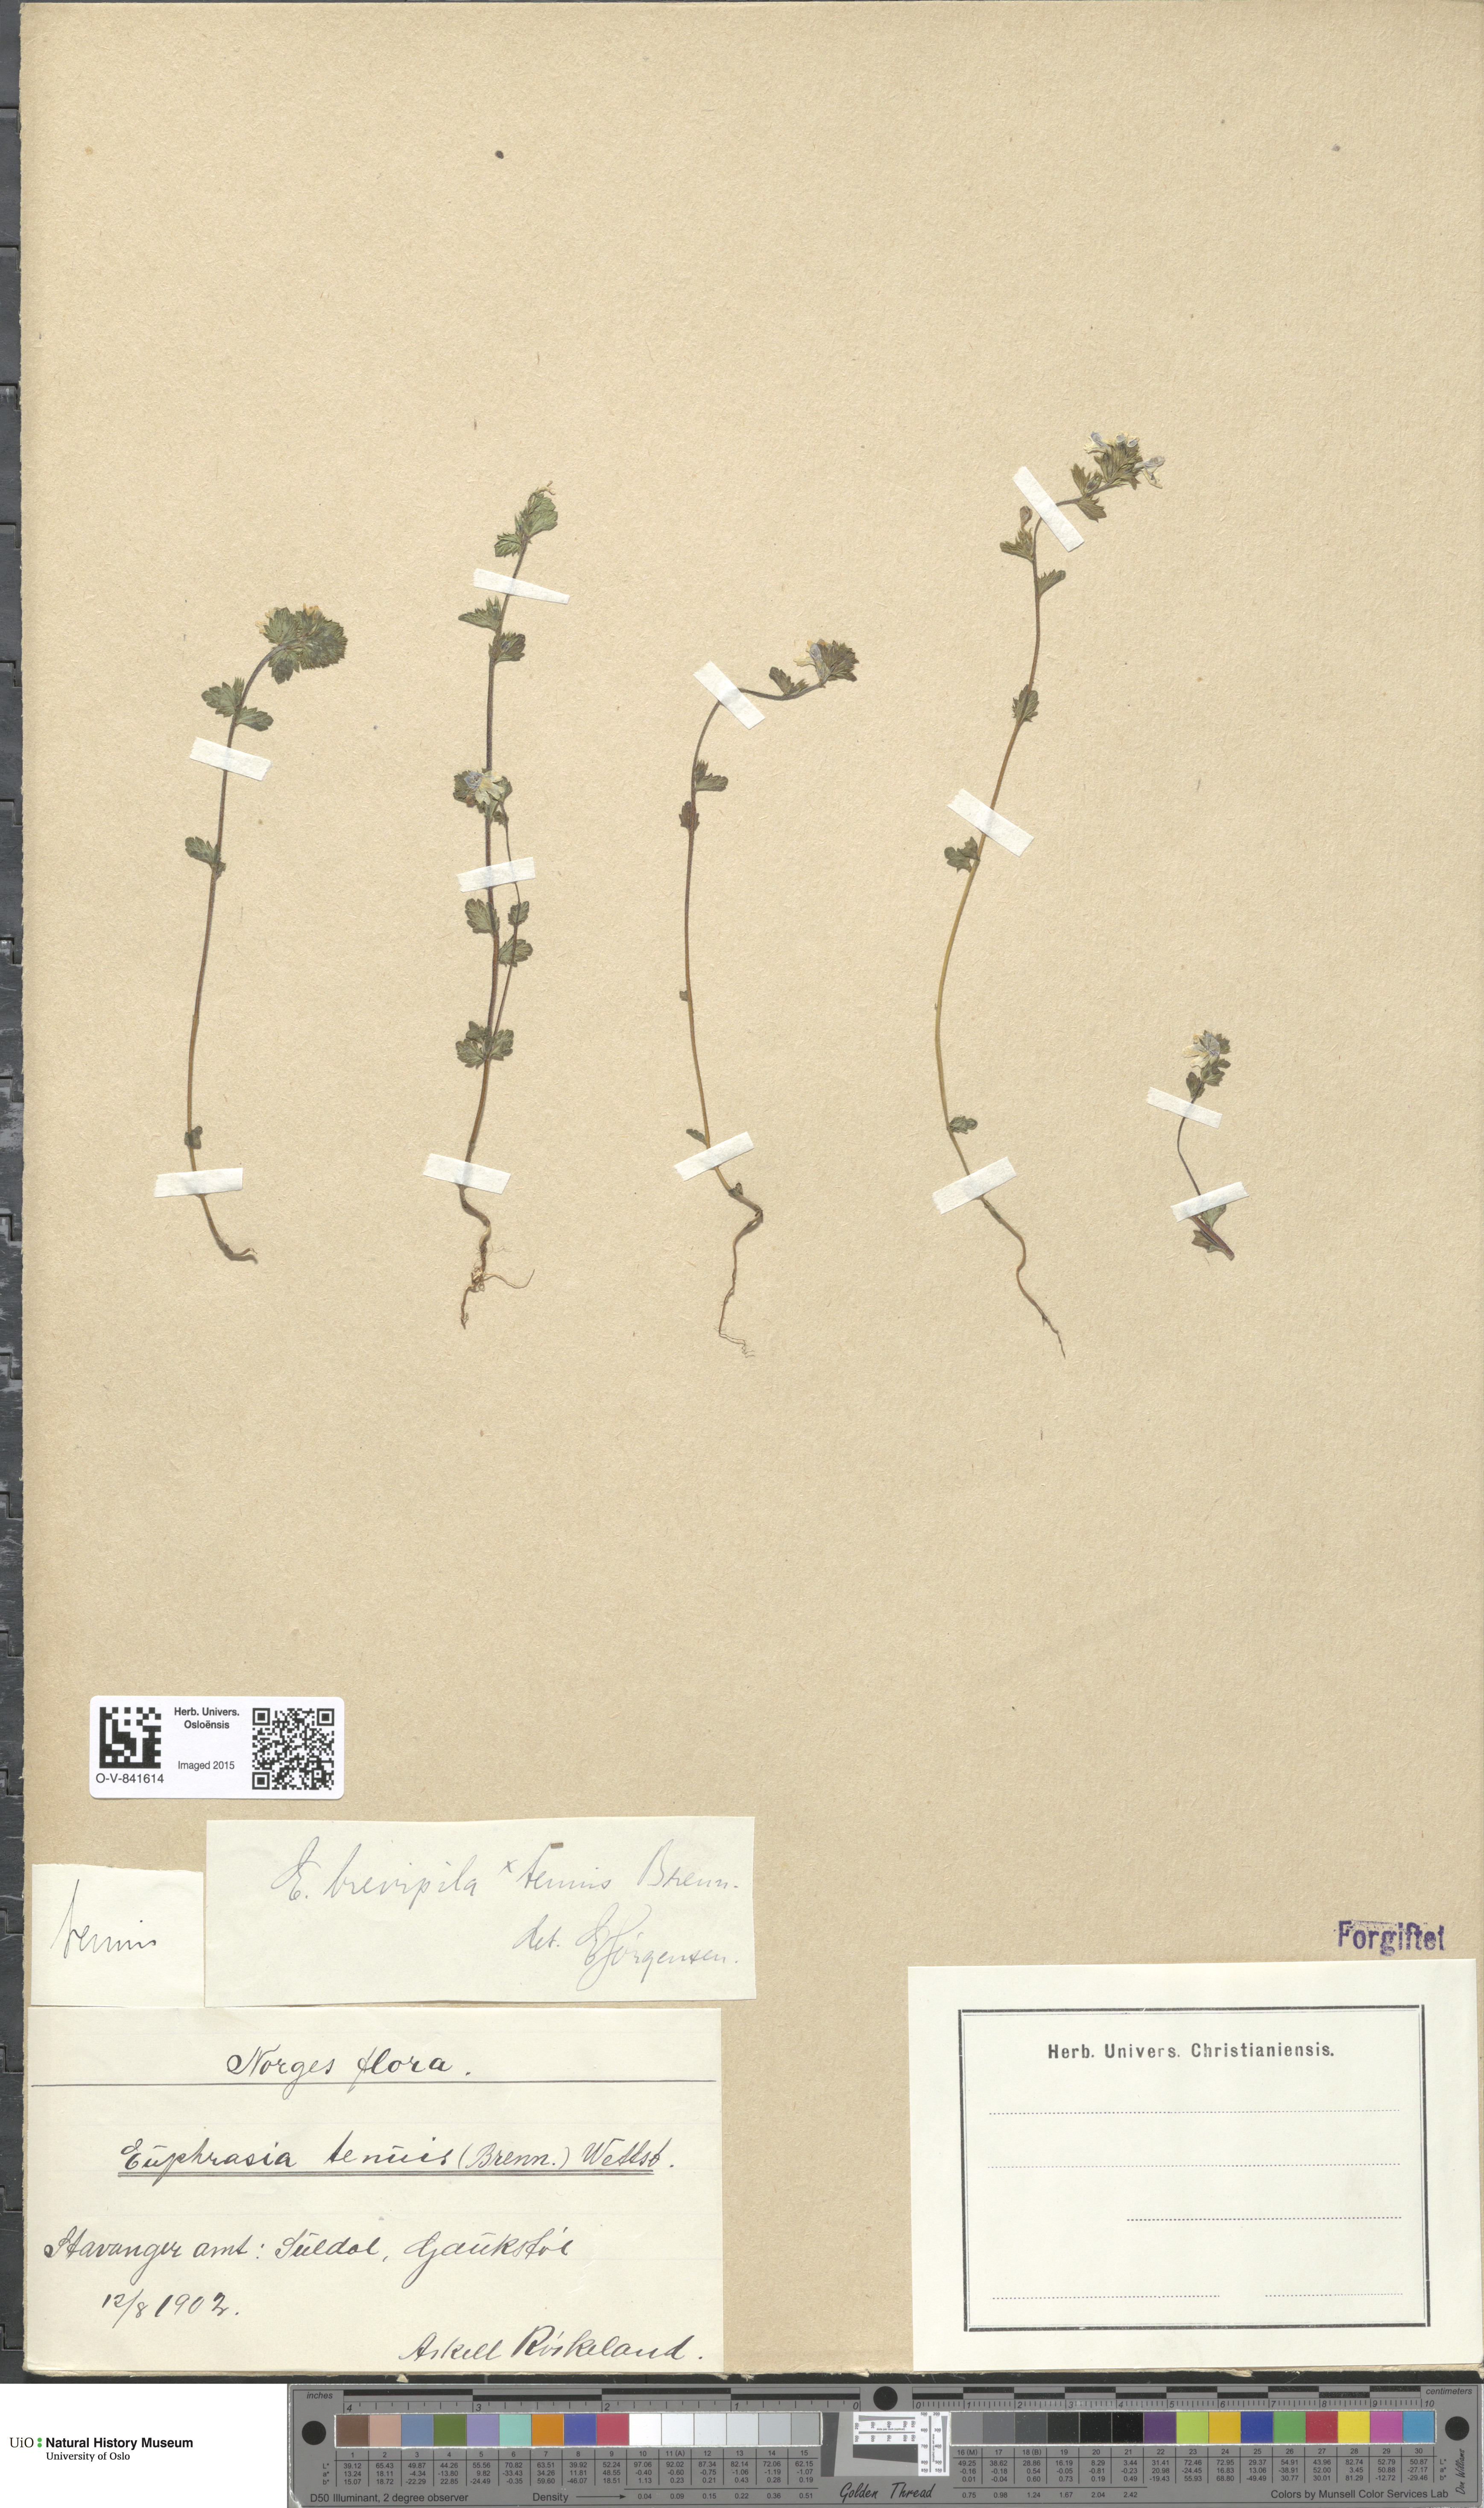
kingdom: Plantae
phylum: Tracheophyta
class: Magnoliopsida
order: Lamiales
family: Orobanchaceae
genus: Euphrasia
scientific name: Euphrasia vernalis
